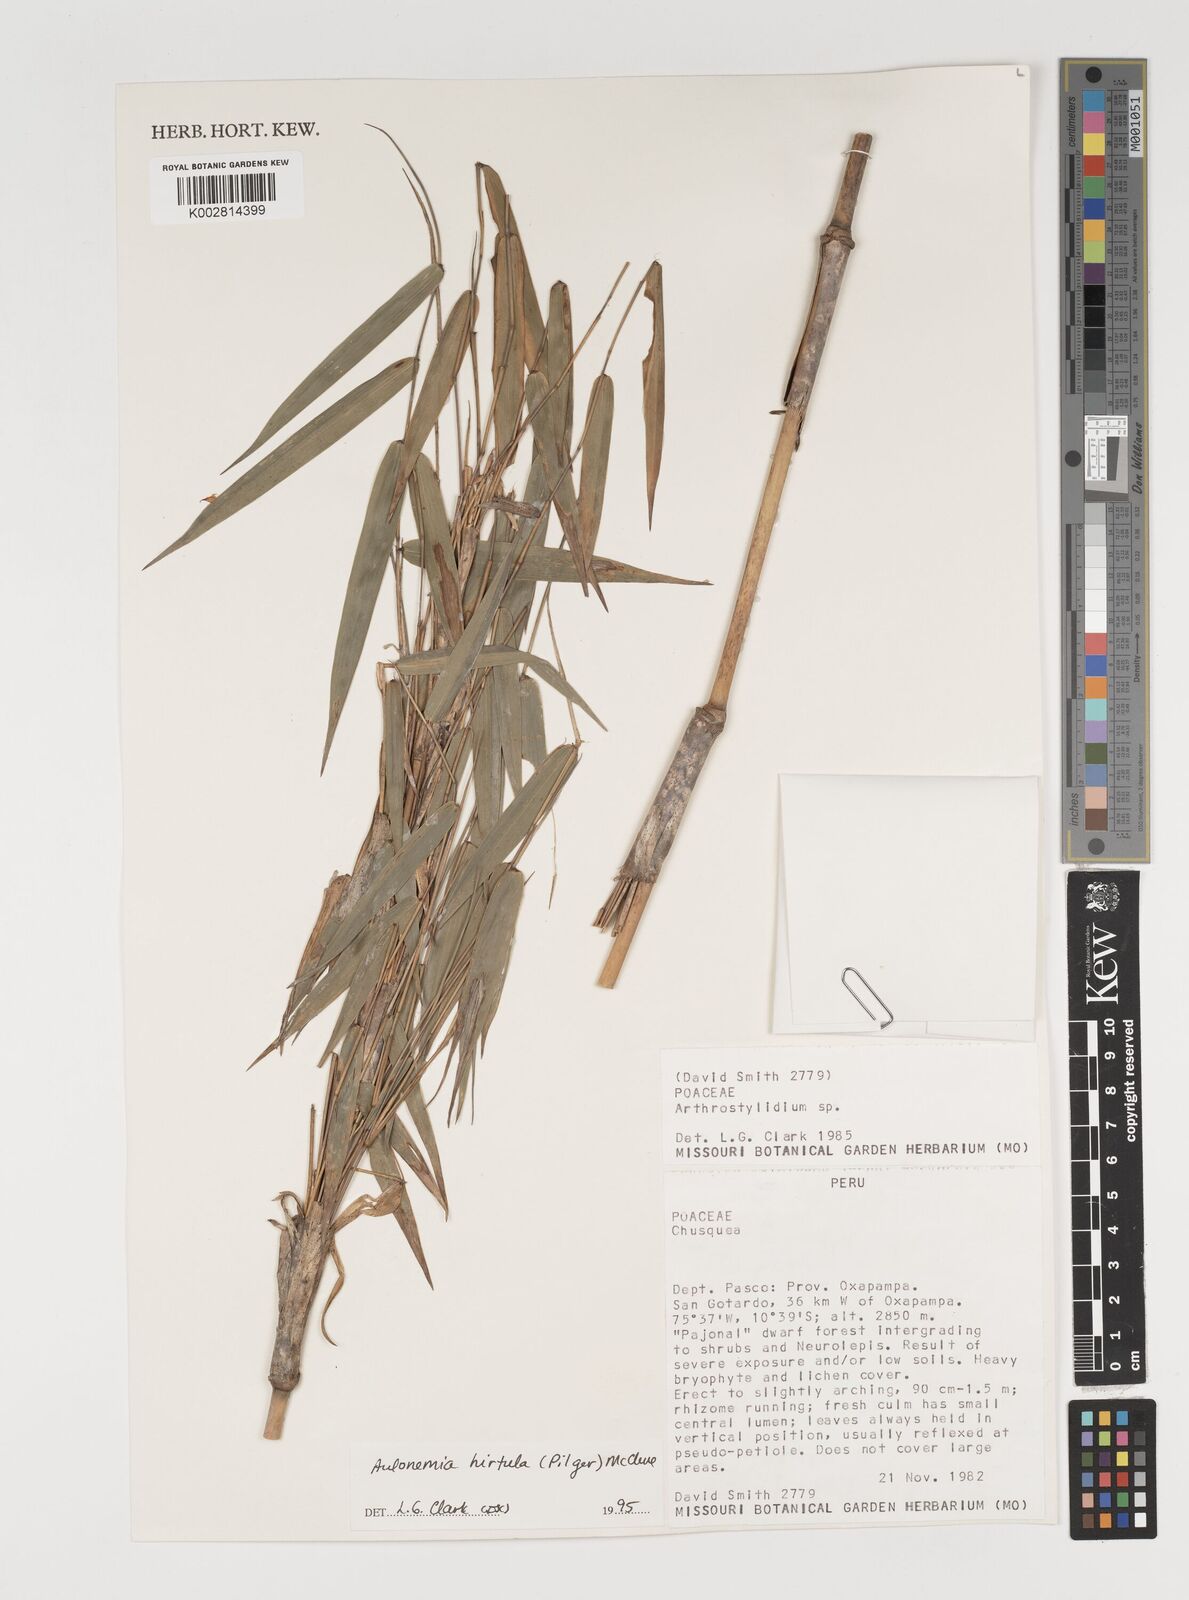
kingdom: Plantae
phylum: Tracheophyta
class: Liliopsida
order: Poales
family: Poaceae
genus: Aulonemia
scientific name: Aulonemia hirtula
